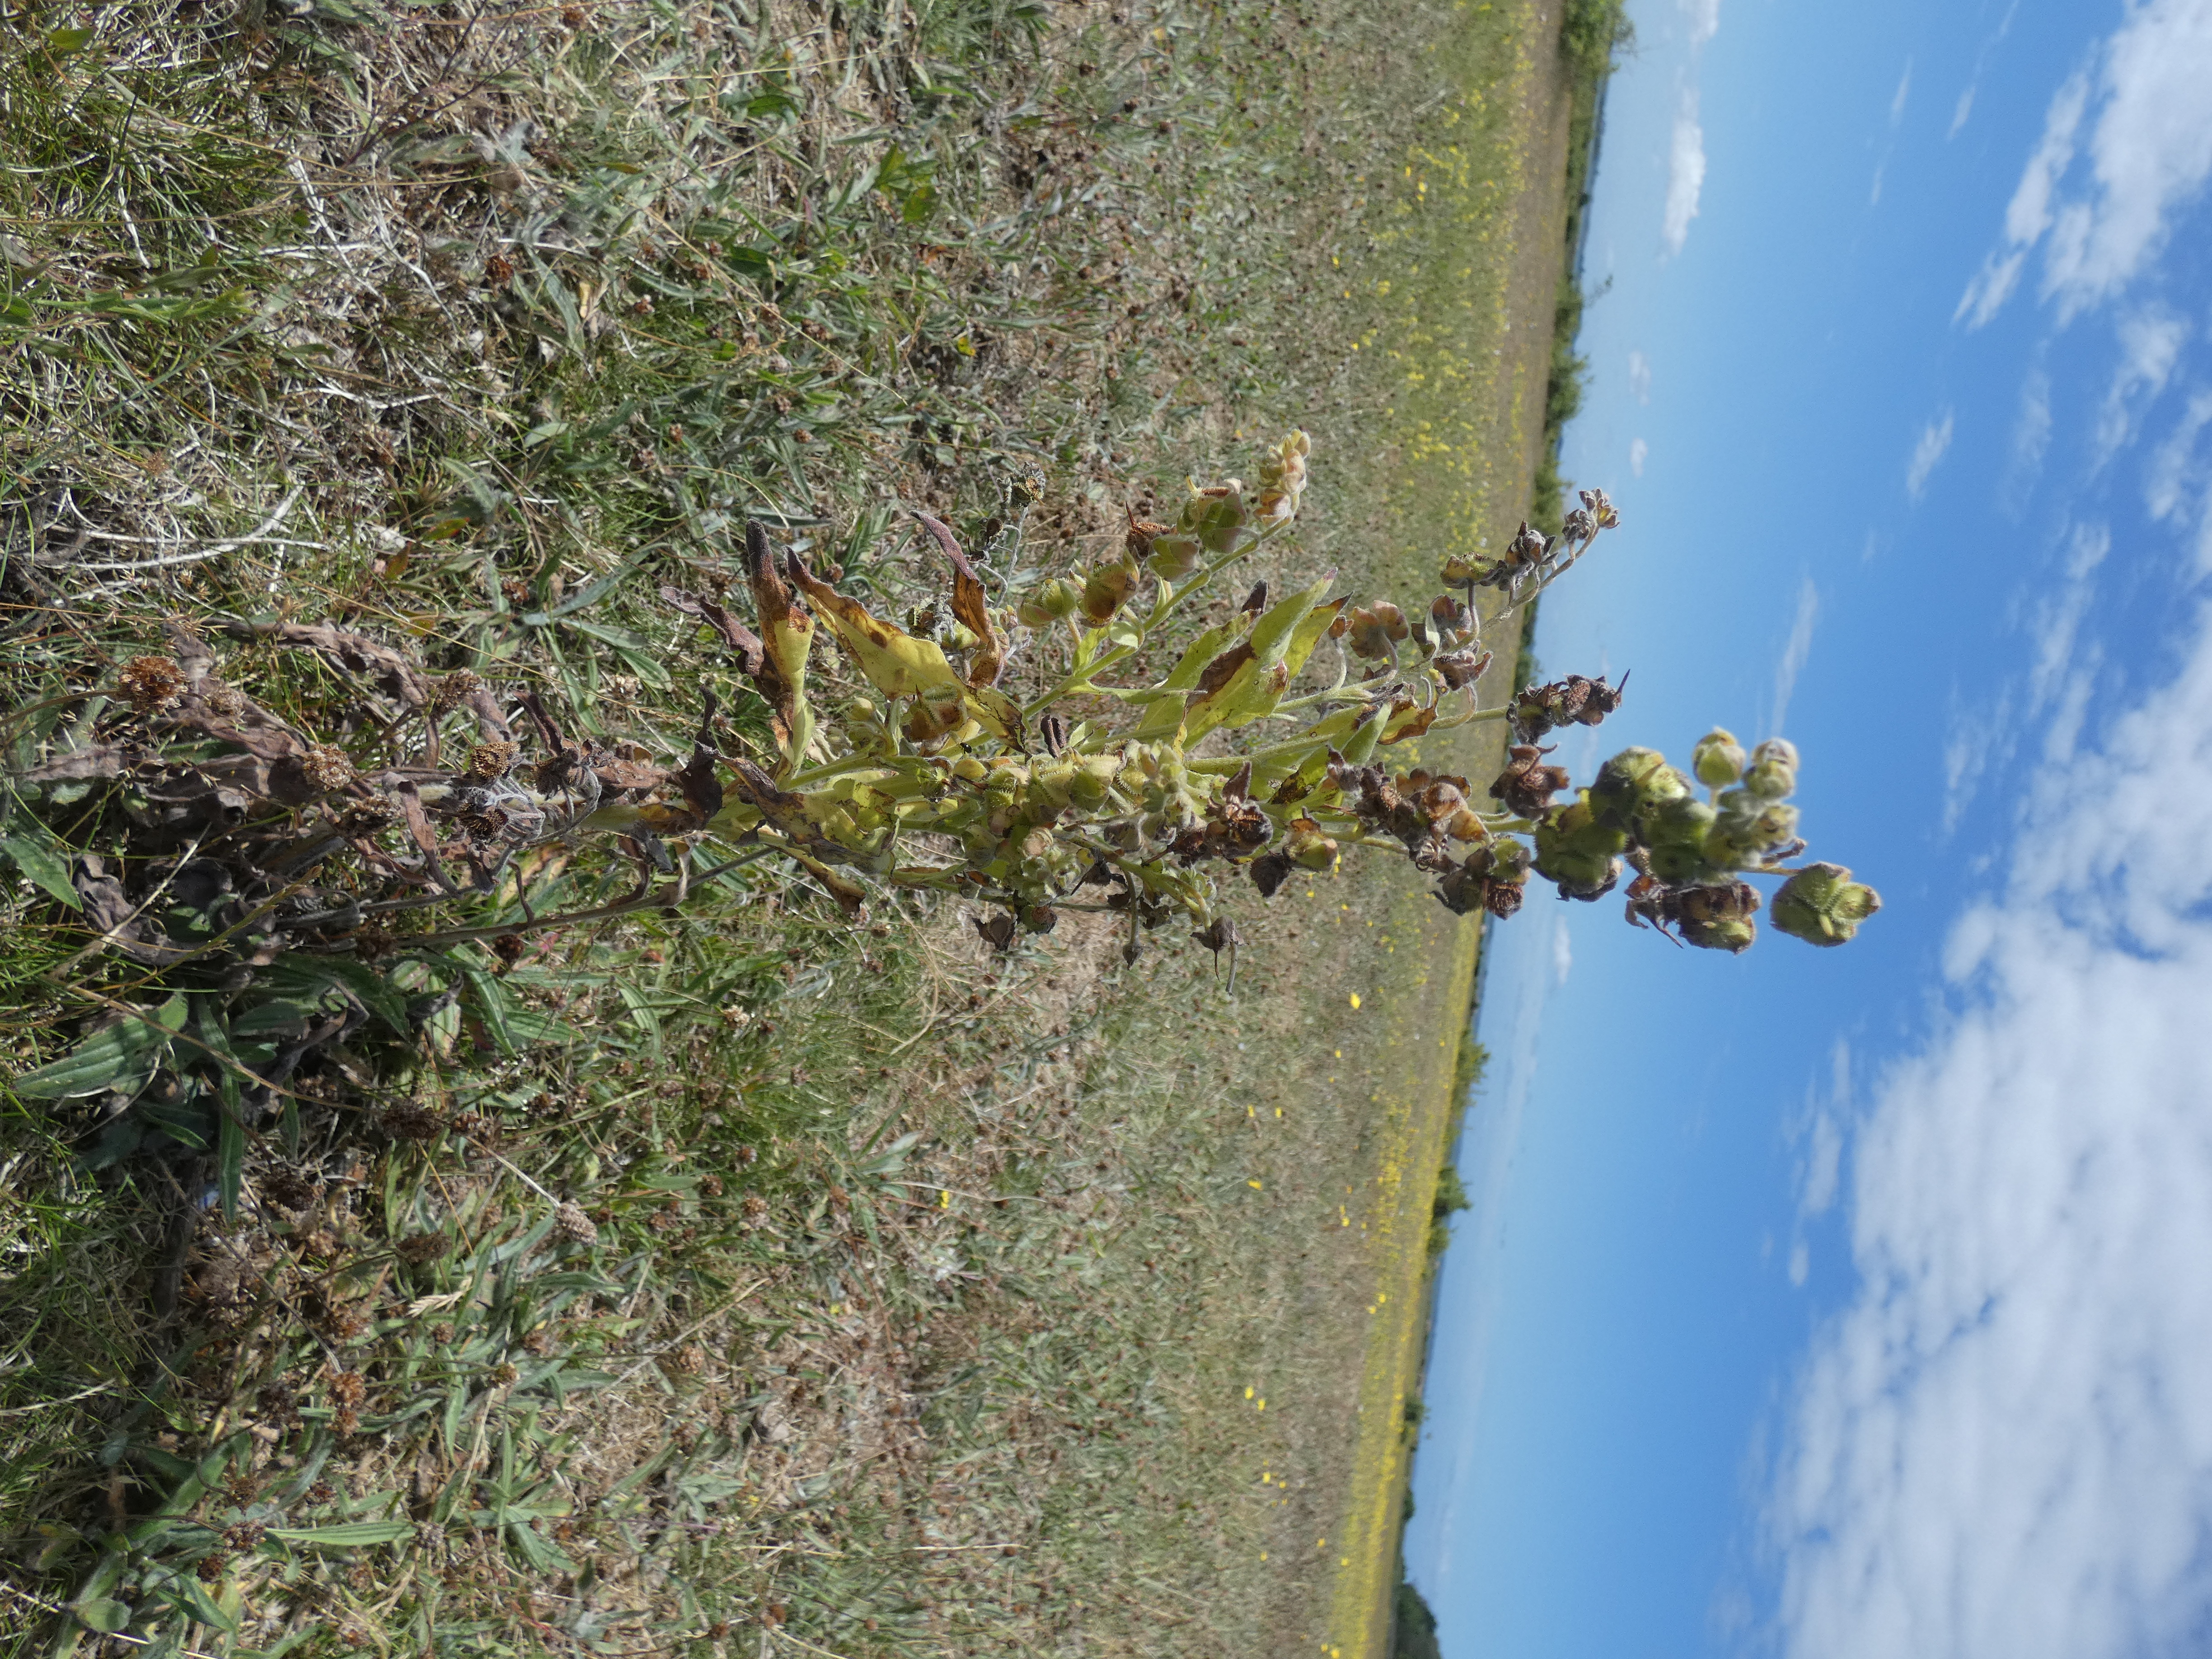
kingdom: Plantae
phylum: Tracheophyta
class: Magnoliopsida
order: Boraginales
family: Boraginaceae
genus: Cynoglossum
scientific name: Cynoglossum officinale
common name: Hundetunge
